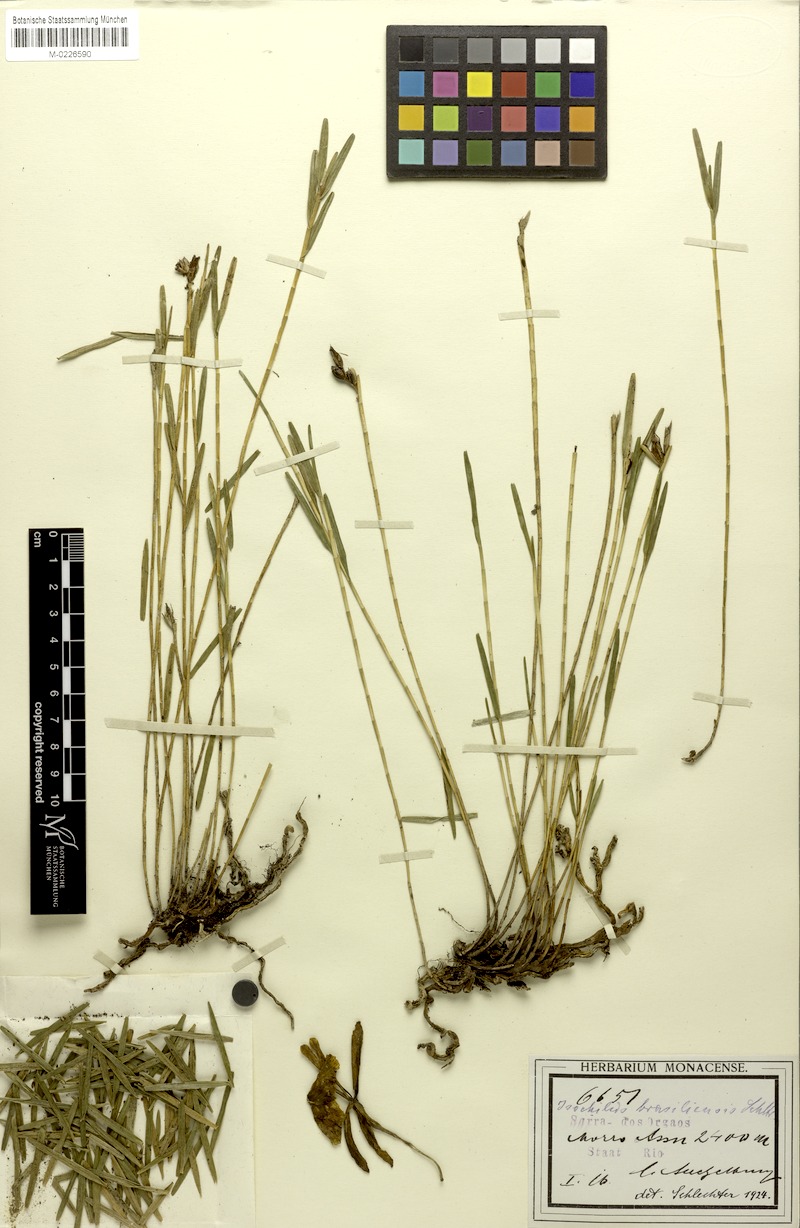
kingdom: Plantae
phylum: Tracheophyta
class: Liliopsida
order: Asparagales
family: Orchidaceae
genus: Isochilus
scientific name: Isochilus linearis
